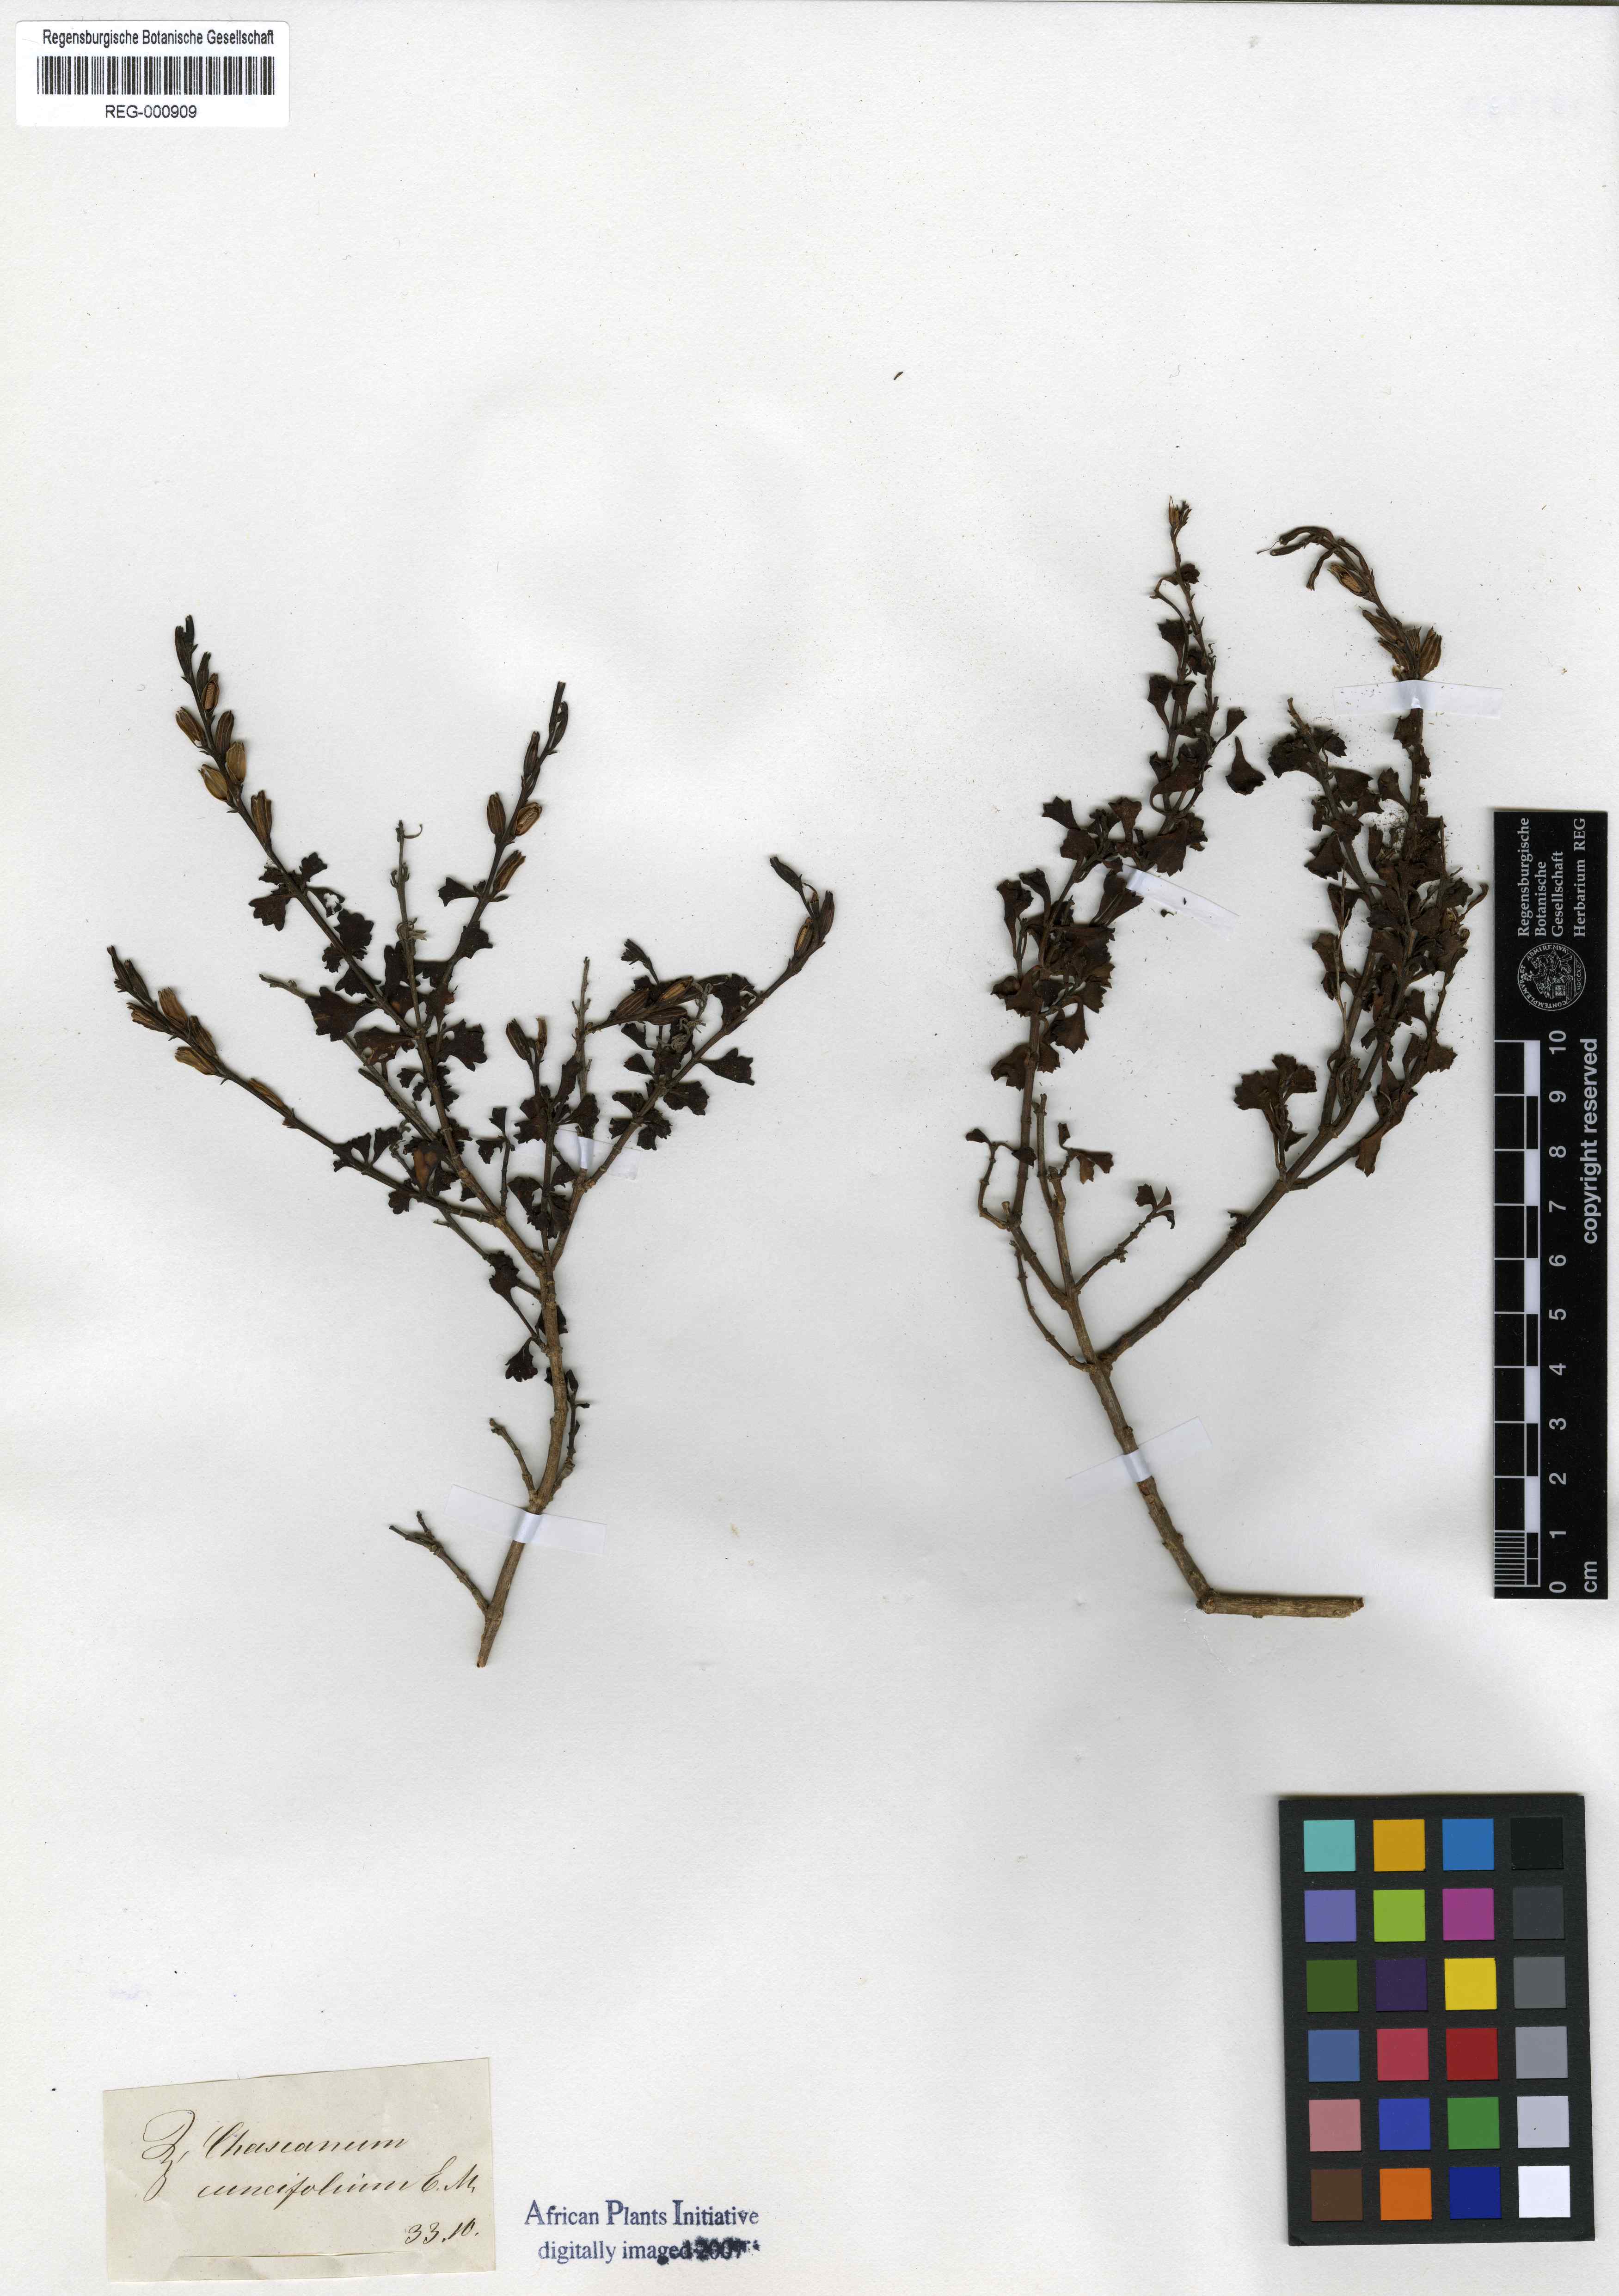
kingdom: Plantae
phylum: Tracheophyta
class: Magnoliopsida
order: Lamiales
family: Verbenaceae
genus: Chascanum
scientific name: Chascanum cuneifolium
